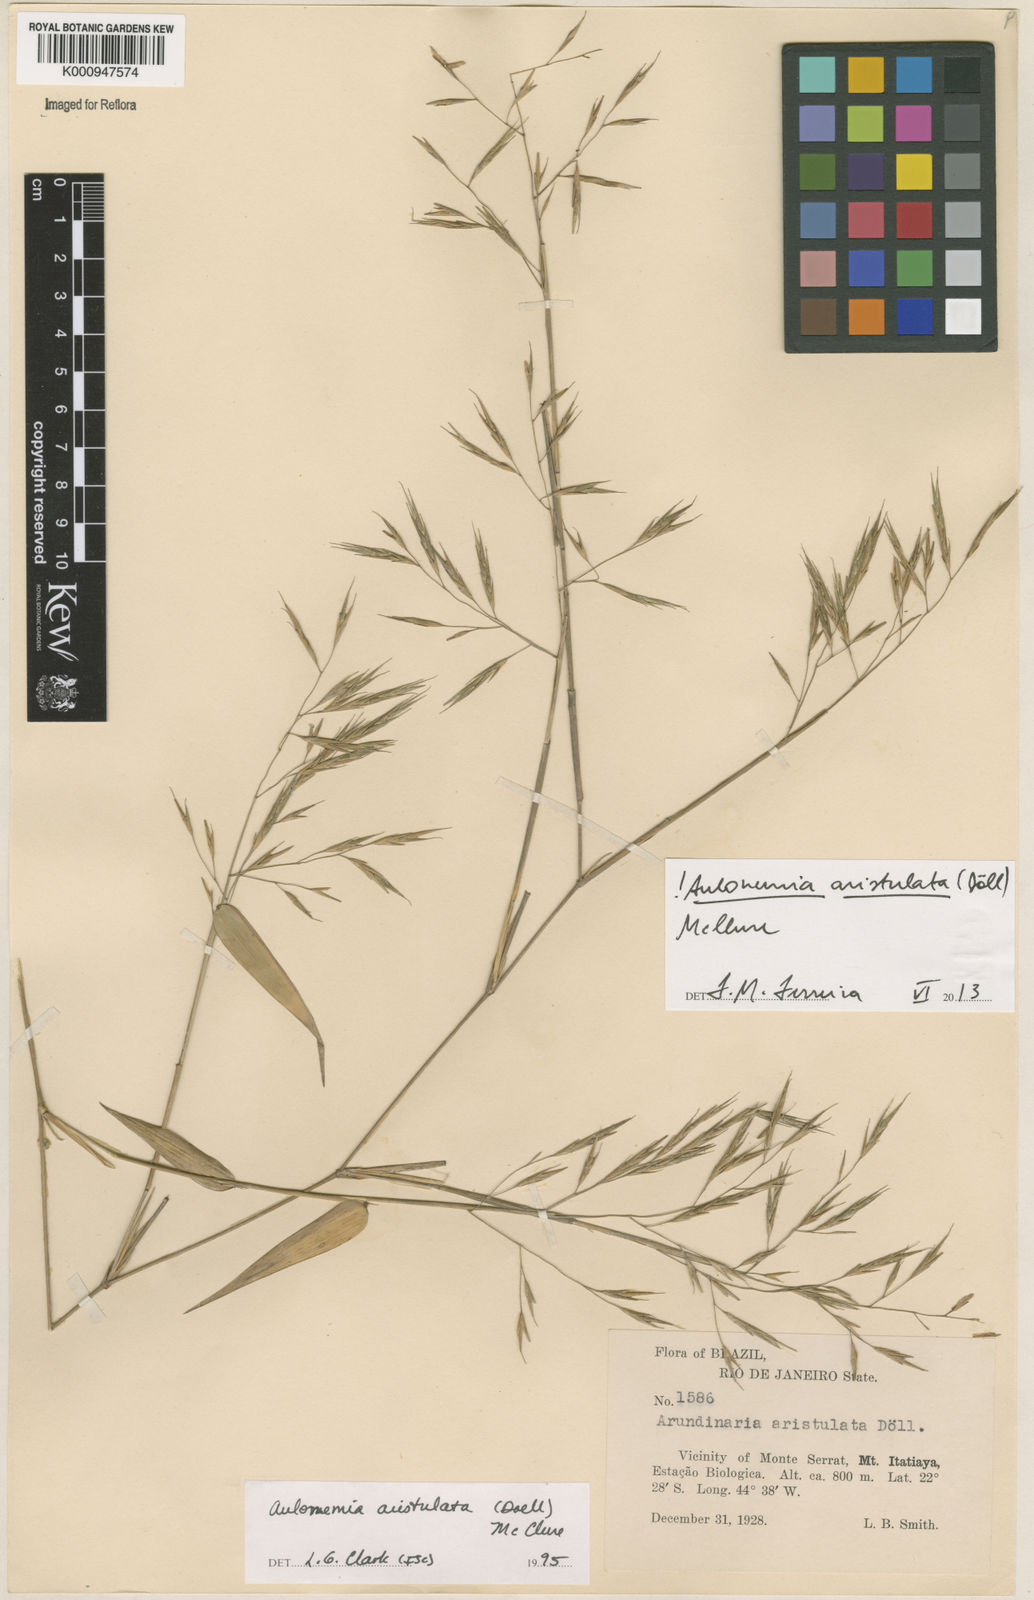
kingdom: Plantae
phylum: Tracheophyta
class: Liliopsida
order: Poales
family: Poaceae
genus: Aulonemia
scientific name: Aulonemia
